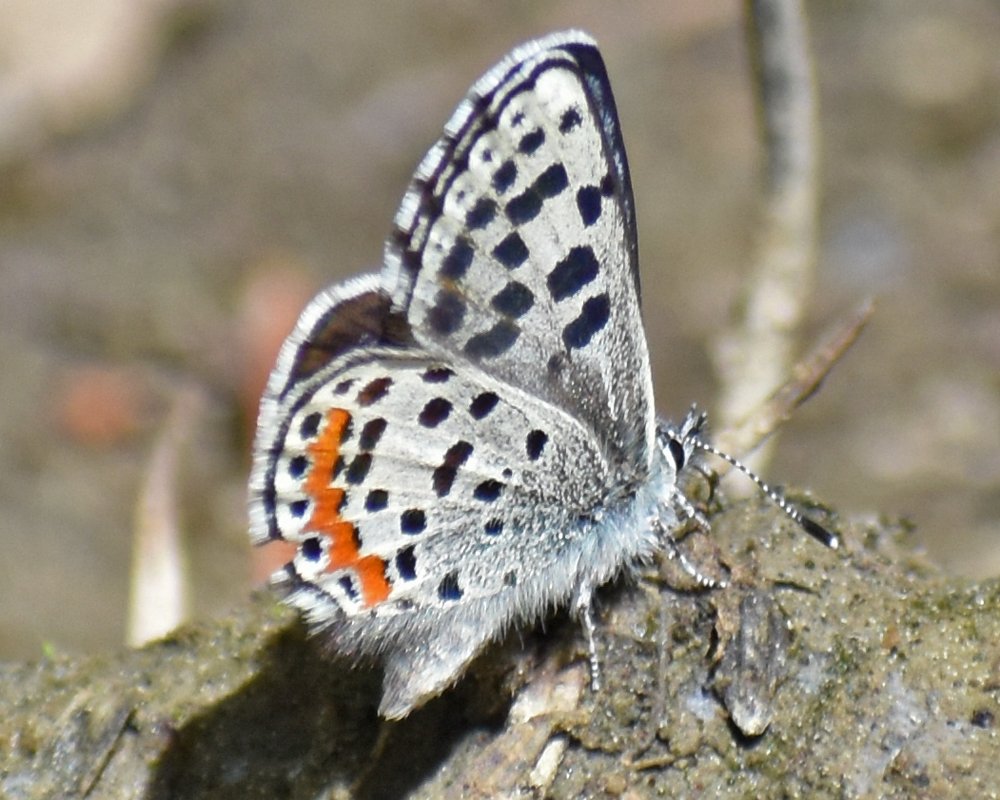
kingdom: Animalia
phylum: Arthropoda
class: Insecta
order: Lepidoptera
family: Lycaenidae
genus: Euphilotes
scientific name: Euphilotes
